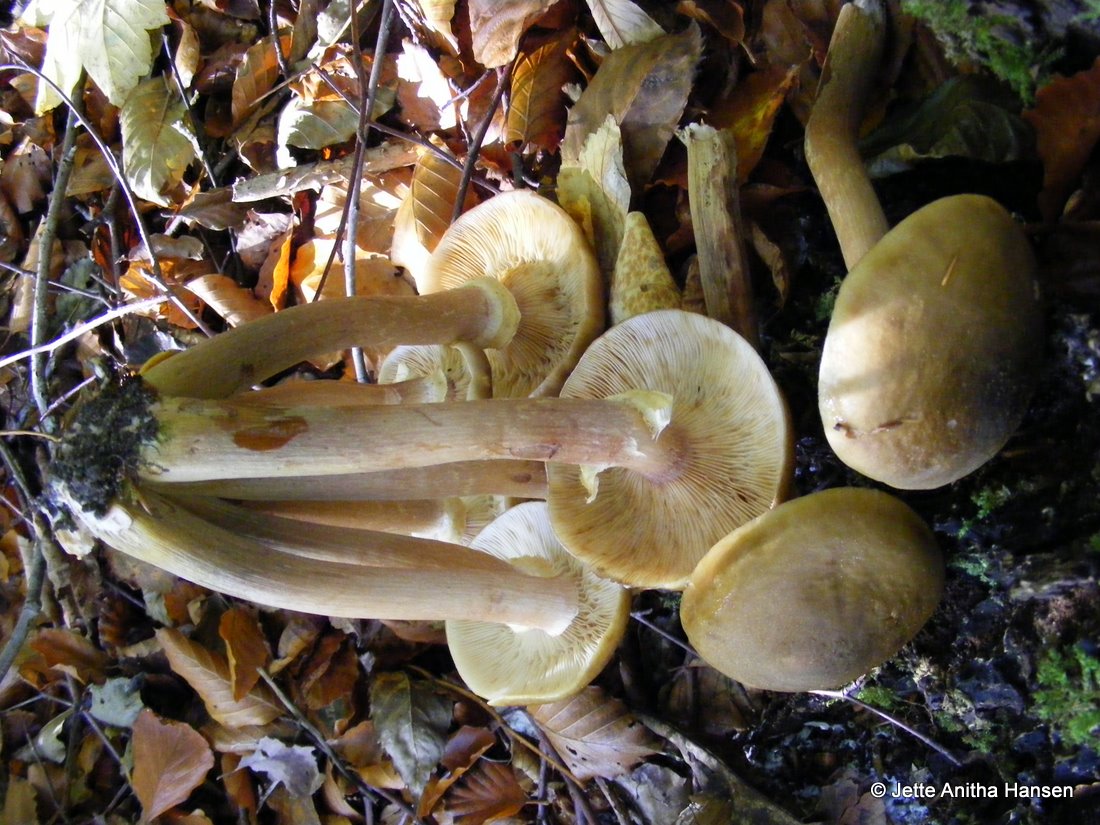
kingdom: Fungi
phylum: Basidiomycota
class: Agaricomycetes
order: Agaricales
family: Physalacriaceae
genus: Armillaria
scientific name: Armillaria mellea
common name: ægte honningsvamp
